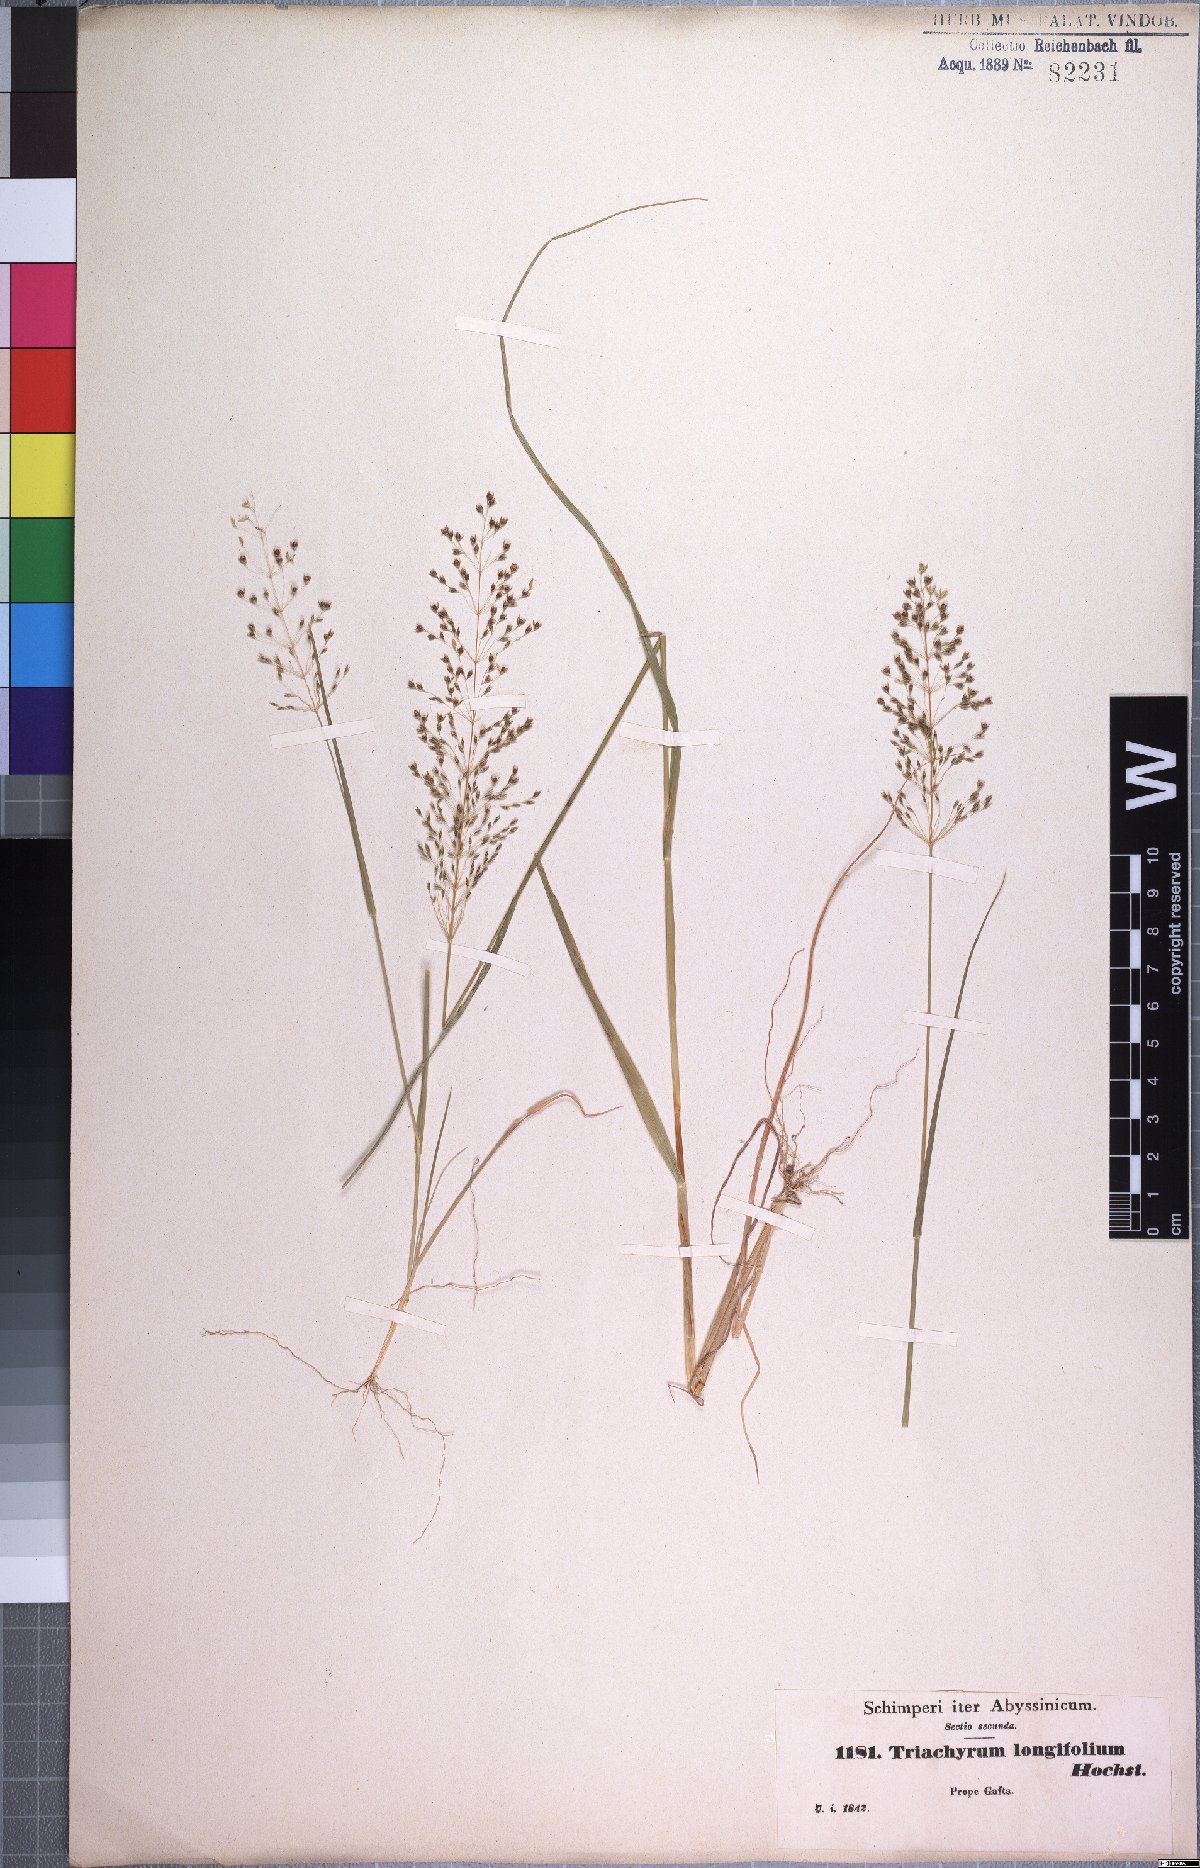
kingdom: Plantae
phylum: Tracheophyta
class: Liliopsida
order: Poales
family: Poaceae
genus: Sporobolus
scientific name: Sporobolus panicoides
